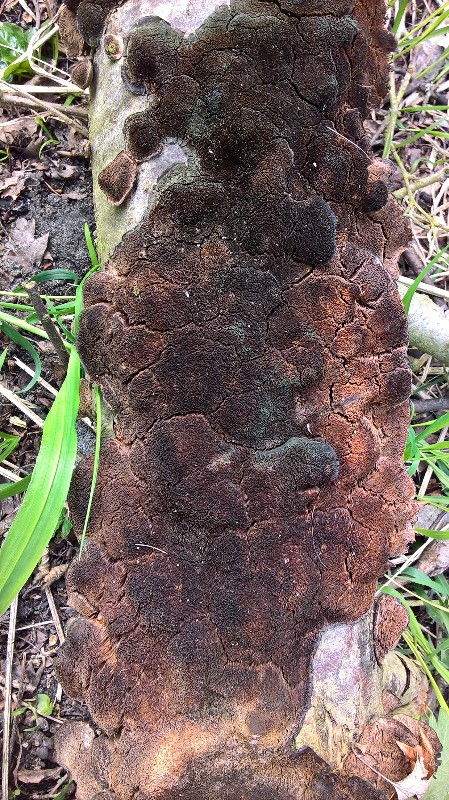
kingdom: Fungi
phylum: Basidiomycota
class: Agaricomycetes
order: Hymenochaetales
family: Hymenochaetaceae
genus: Inonotus
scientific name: Inonotus
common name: spejlporesvamp
